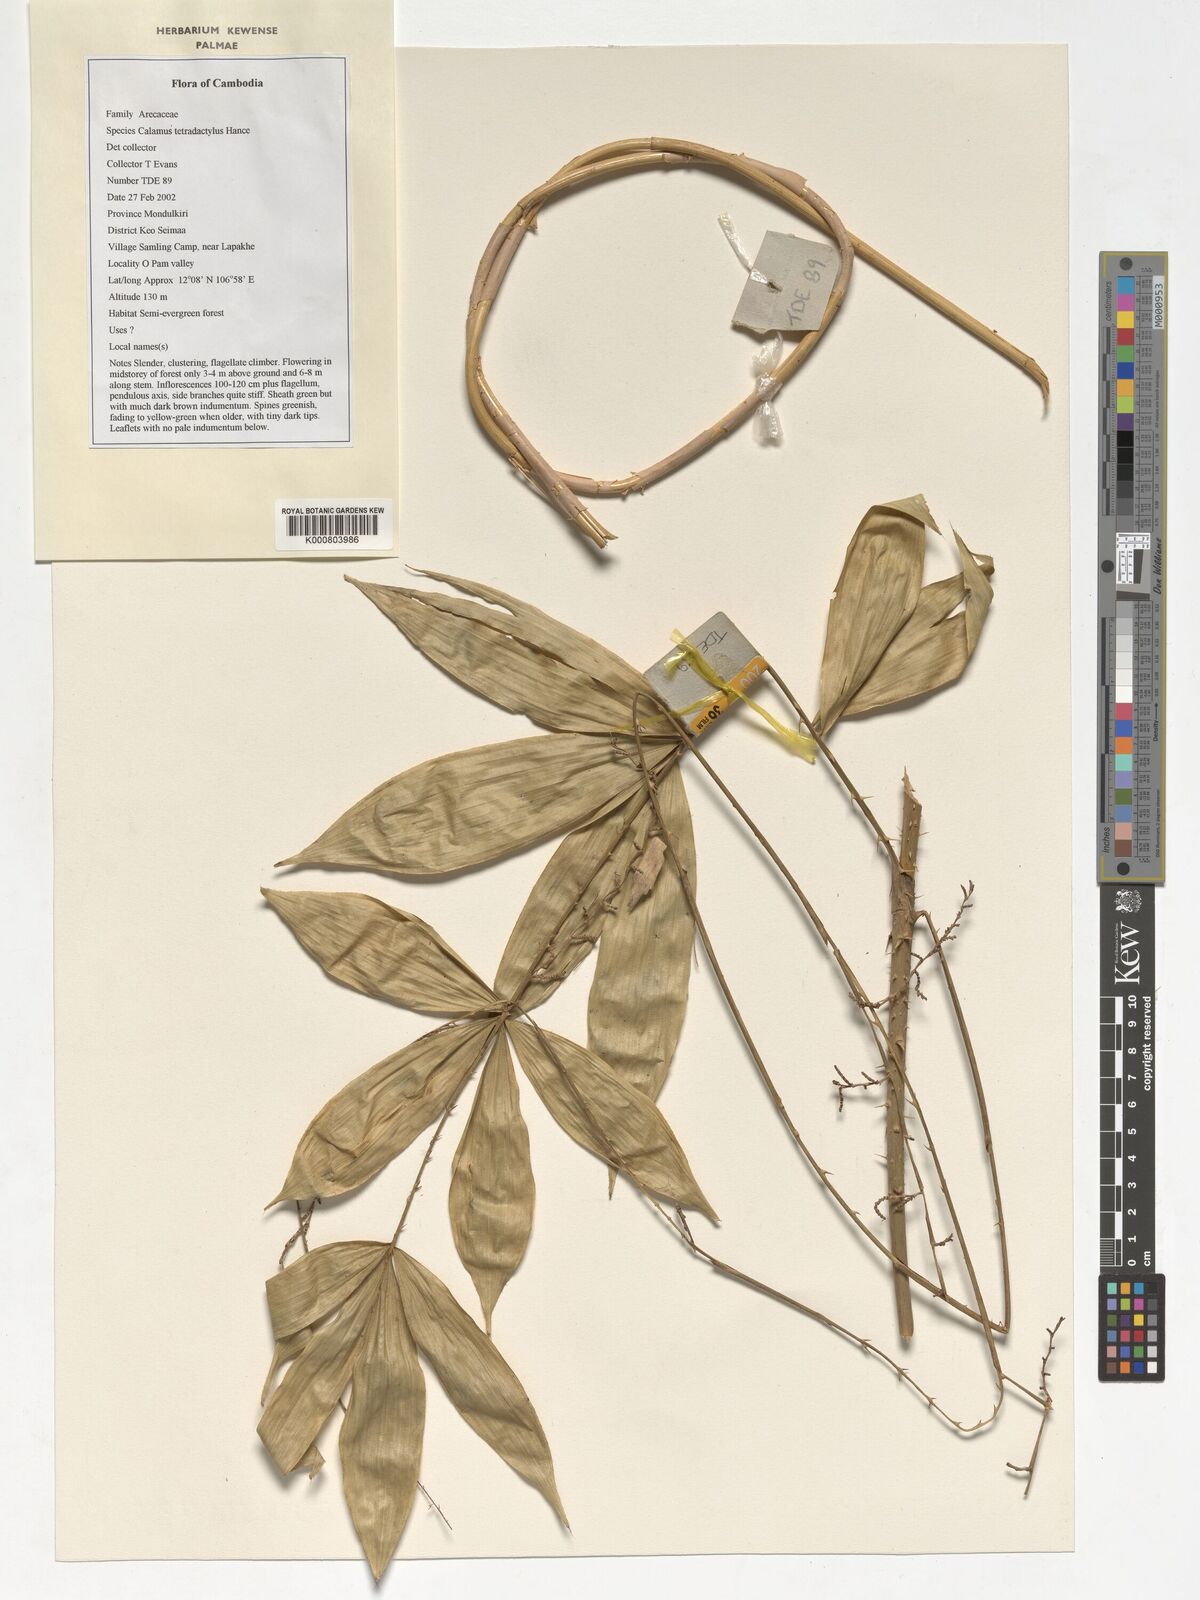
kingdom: Plantae
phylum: Tracheophyta
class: Liliopsida
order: Arecales
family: Arecaceae
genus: Calamus
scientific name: Calamus tetradactylus
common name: White rattan
